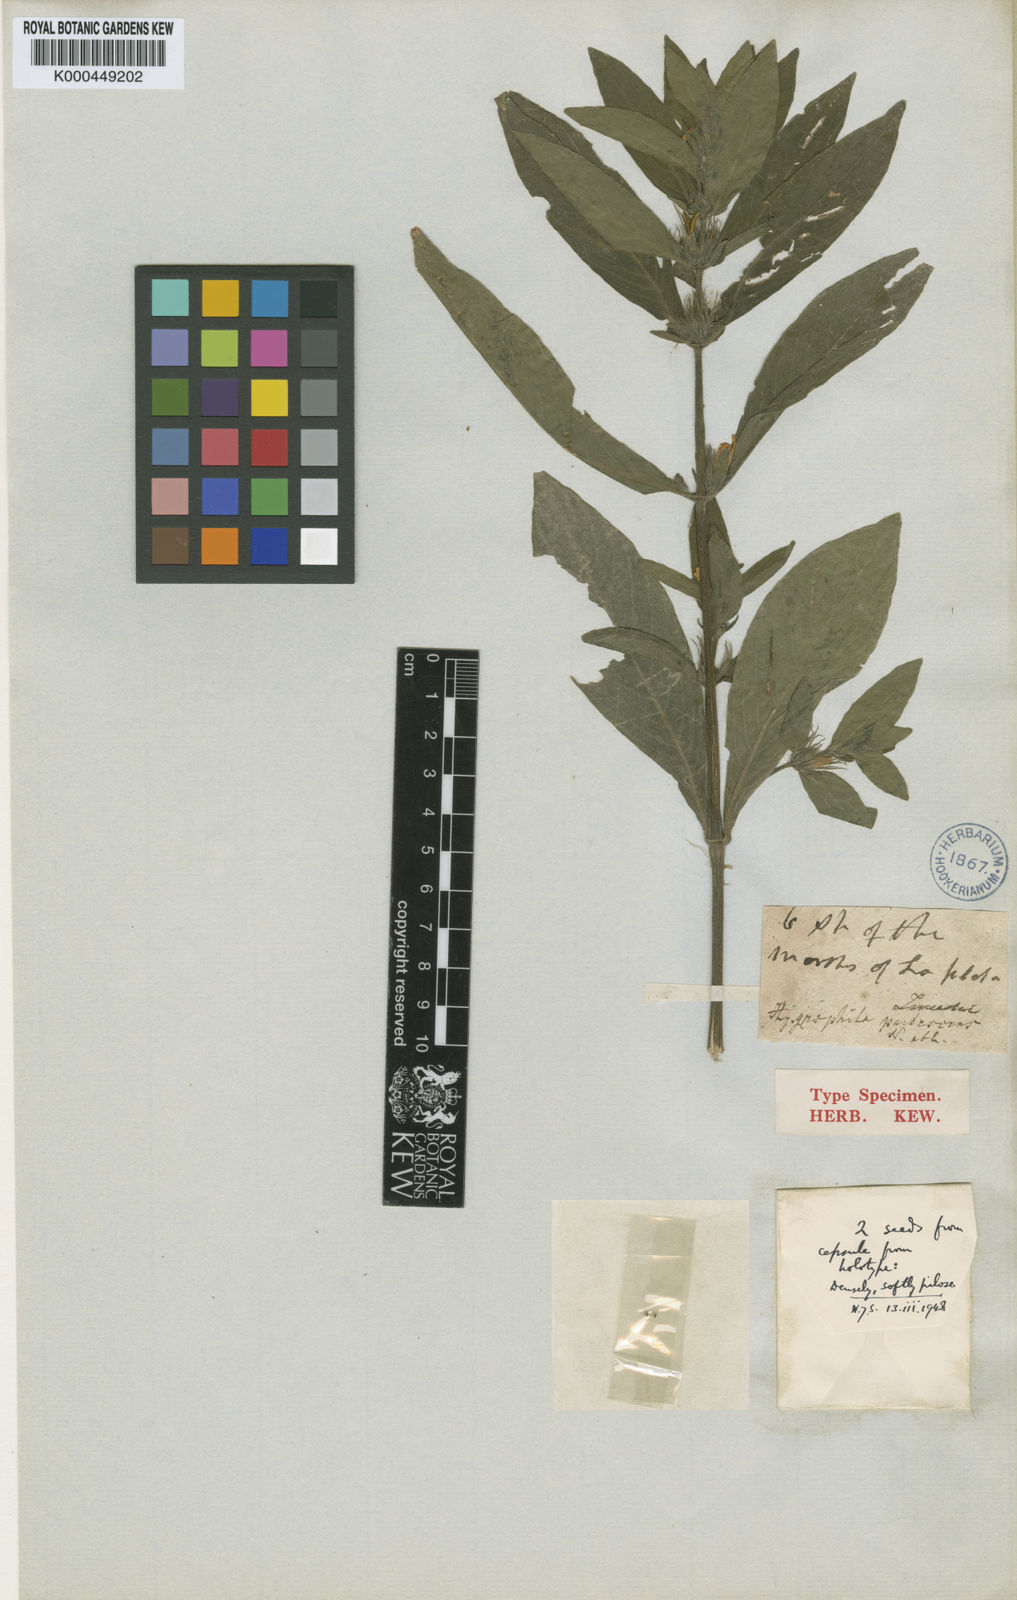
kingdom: Plantae
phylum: Tracheophyta
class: Magnoliopsida
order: Lamiales
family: Acanthaceae
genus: Hygrophila
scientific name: Hygrophila costata
